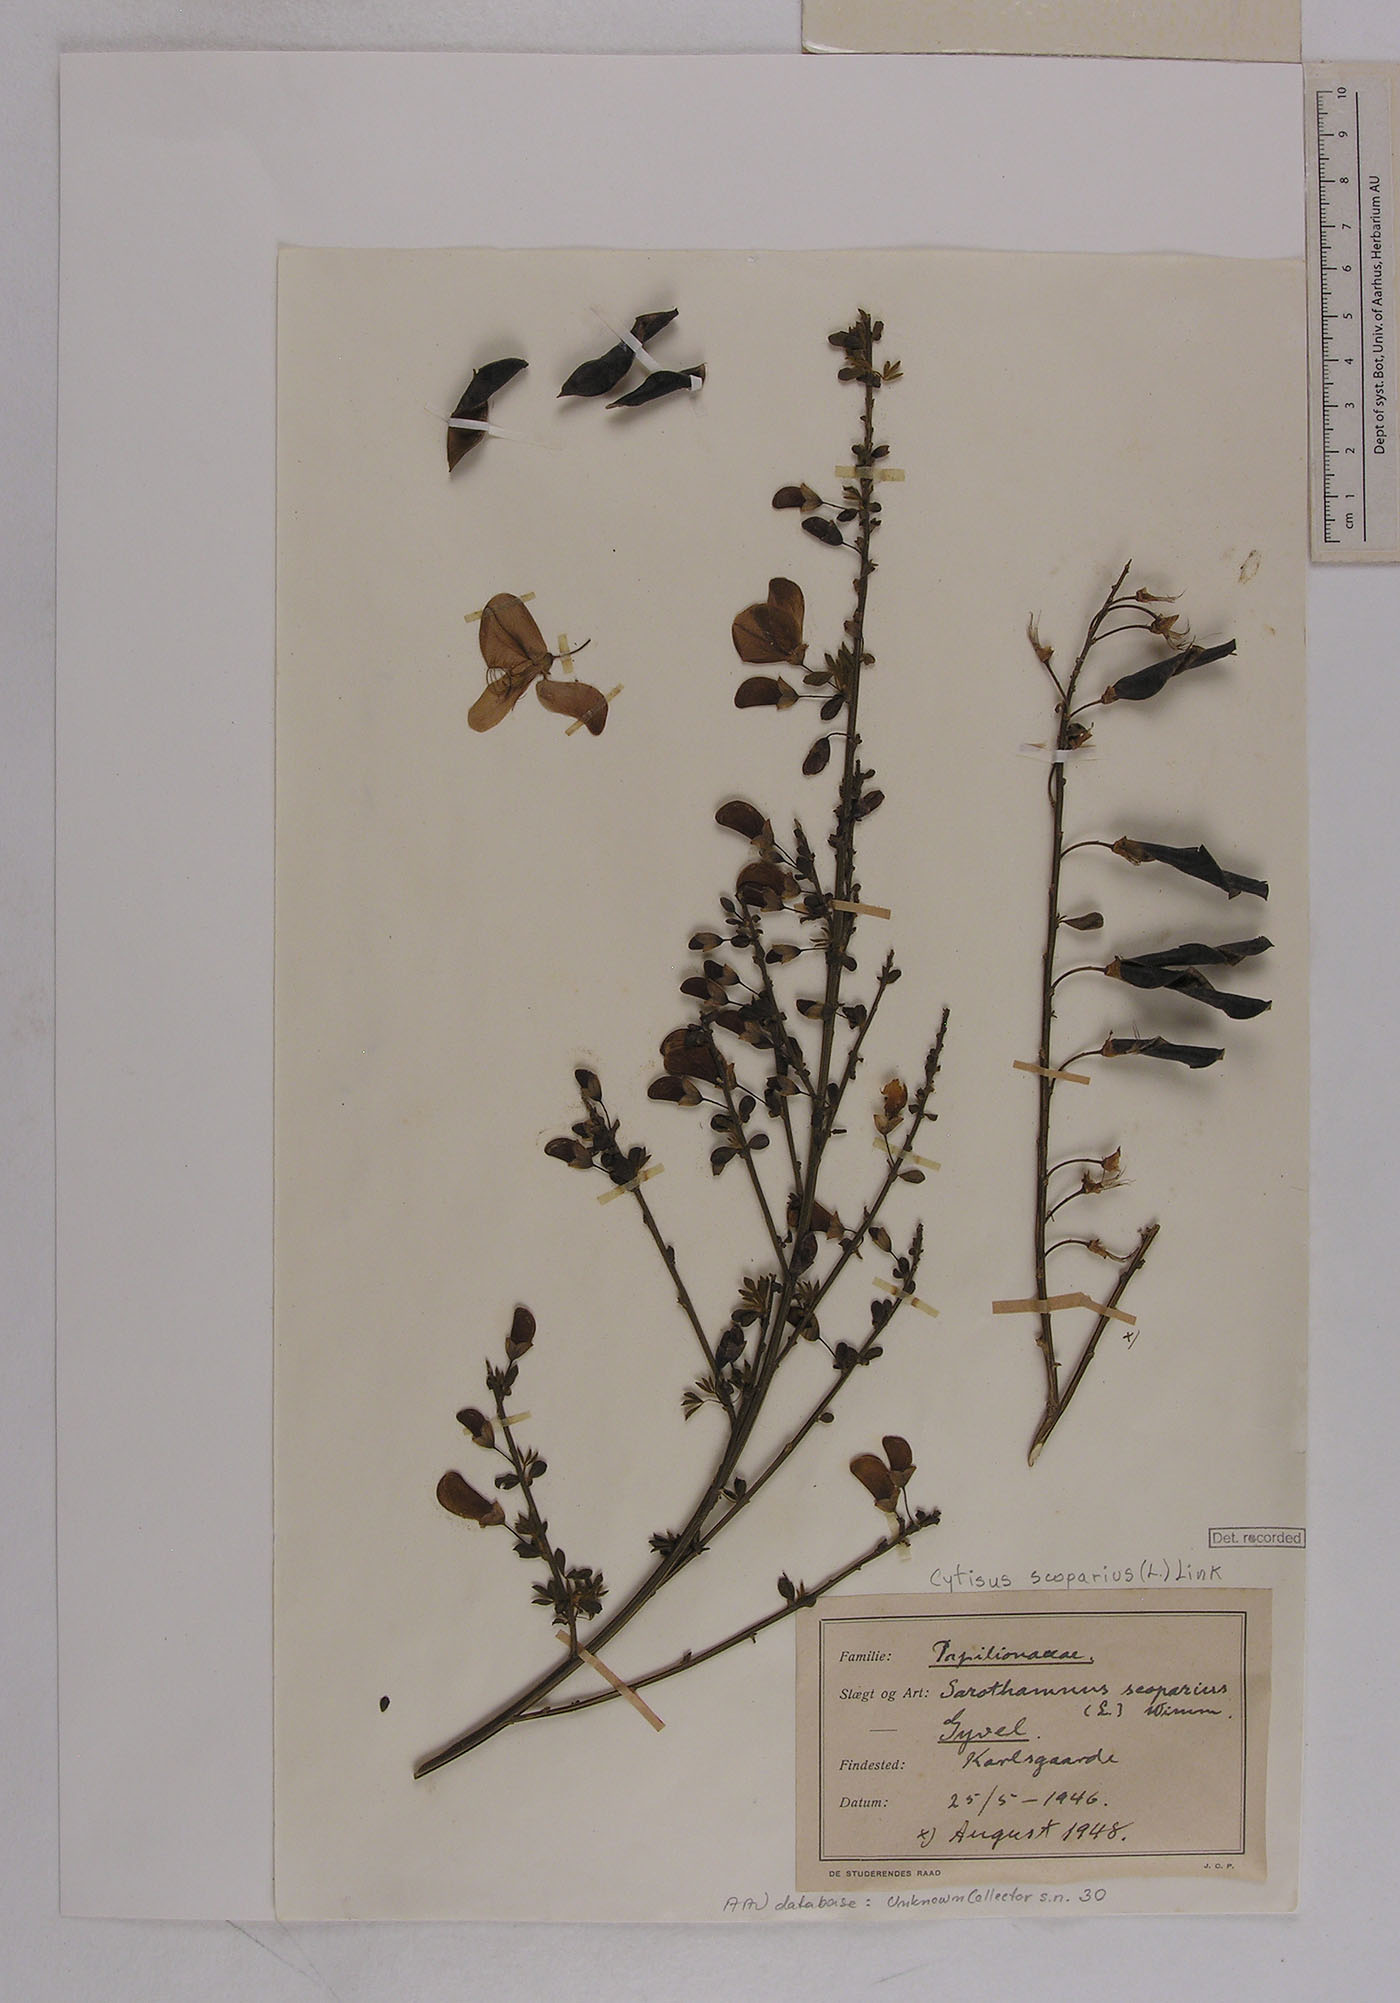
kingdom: Plantae
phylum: Tracheophyta
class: Magnoliopsida
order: Fabales
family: Fabaceae
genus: Cytisus
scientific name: Cytisus scoparius
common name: Scotch broom
